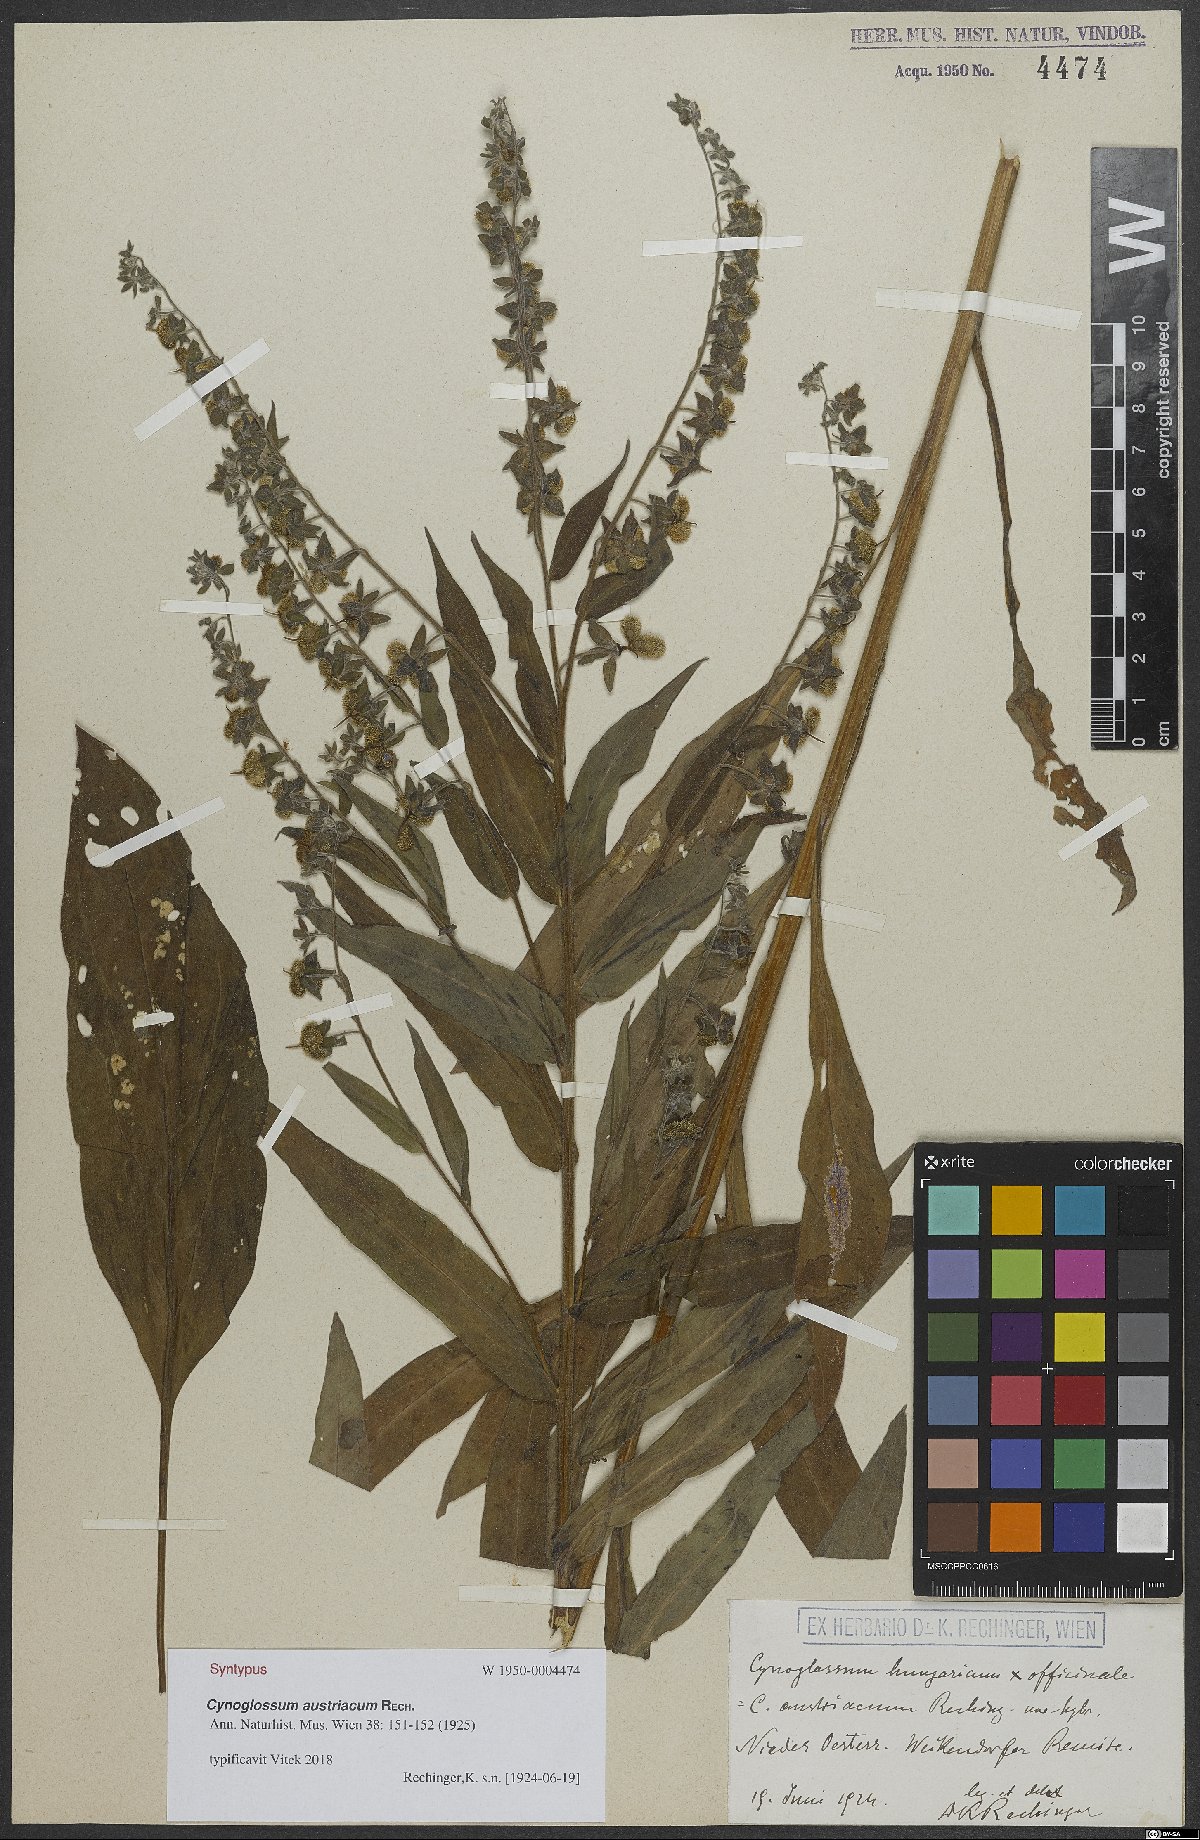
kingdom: Plantae
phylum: Tracheophyta
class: Magnoliopsida
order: Boraginales
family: Boraginaceae
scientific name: Boraginaceae
